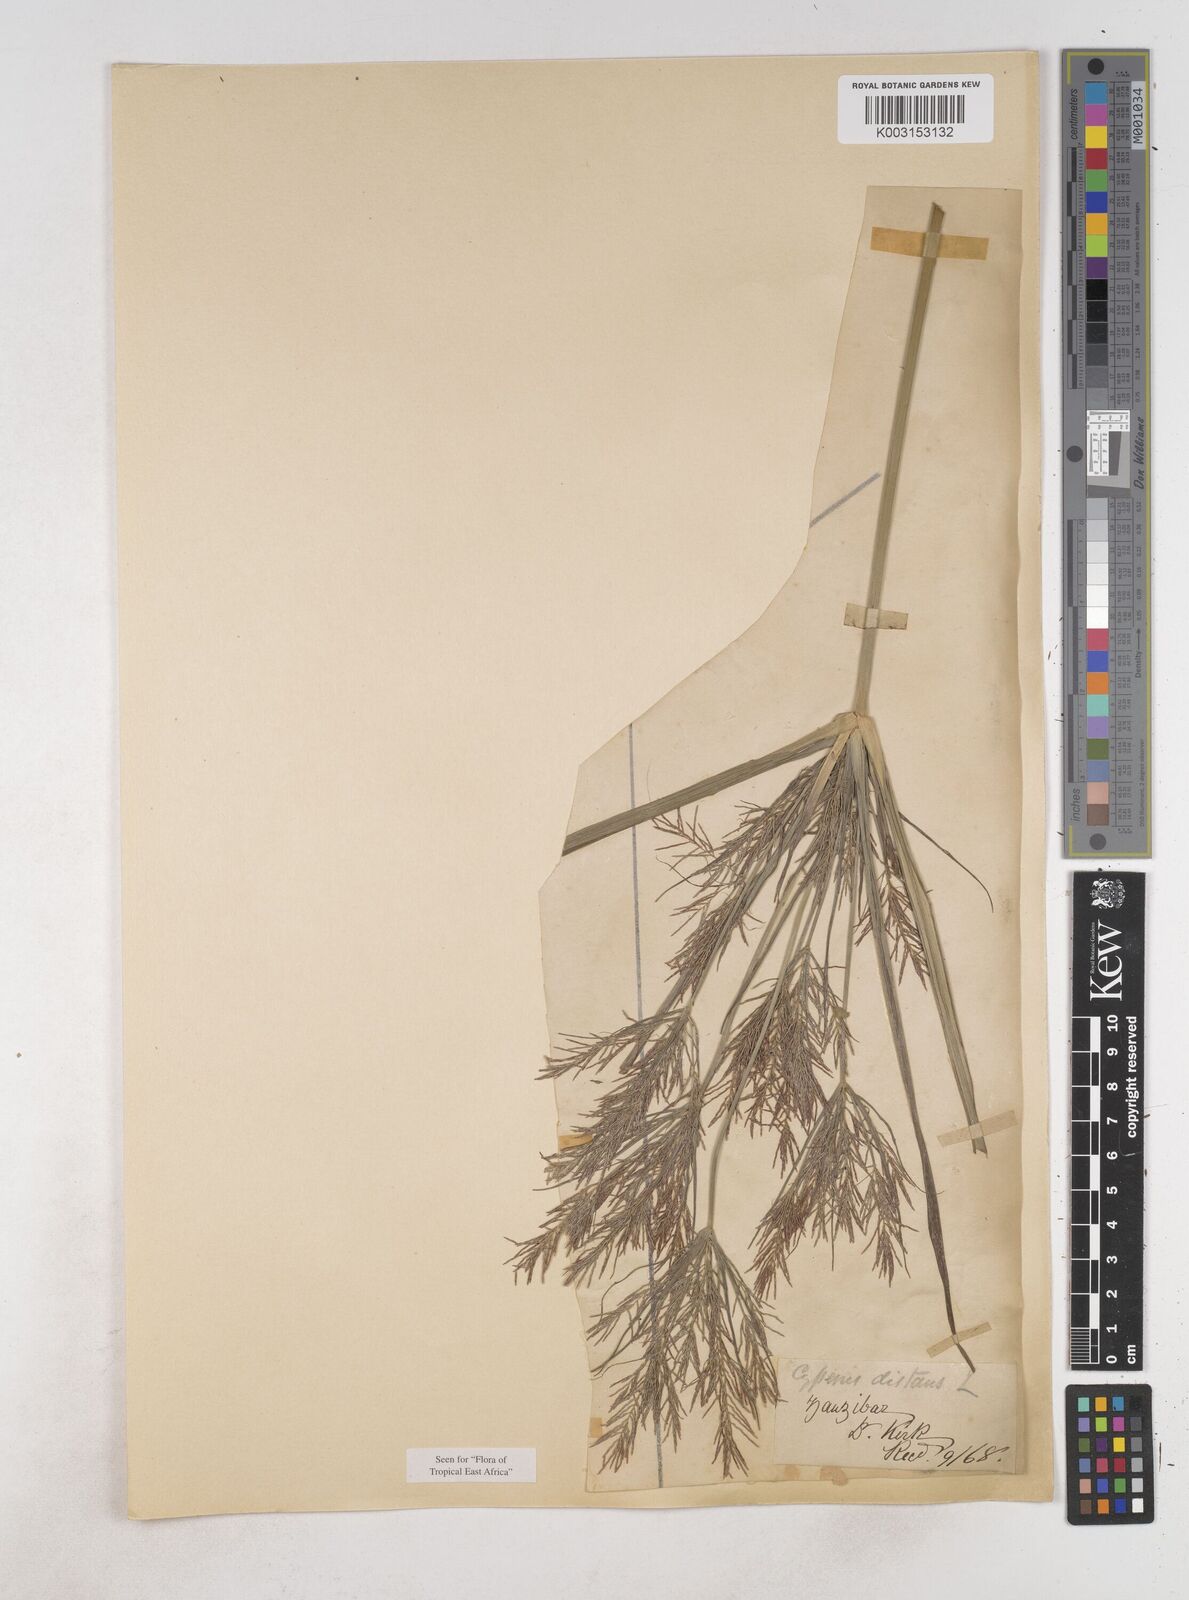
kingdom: Plantae
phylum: Tracheophyta
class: Liliopsida
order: Poales
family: Cyperaceae
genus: Cyperus
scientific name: Cyperus distans
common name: Slender cyperus
